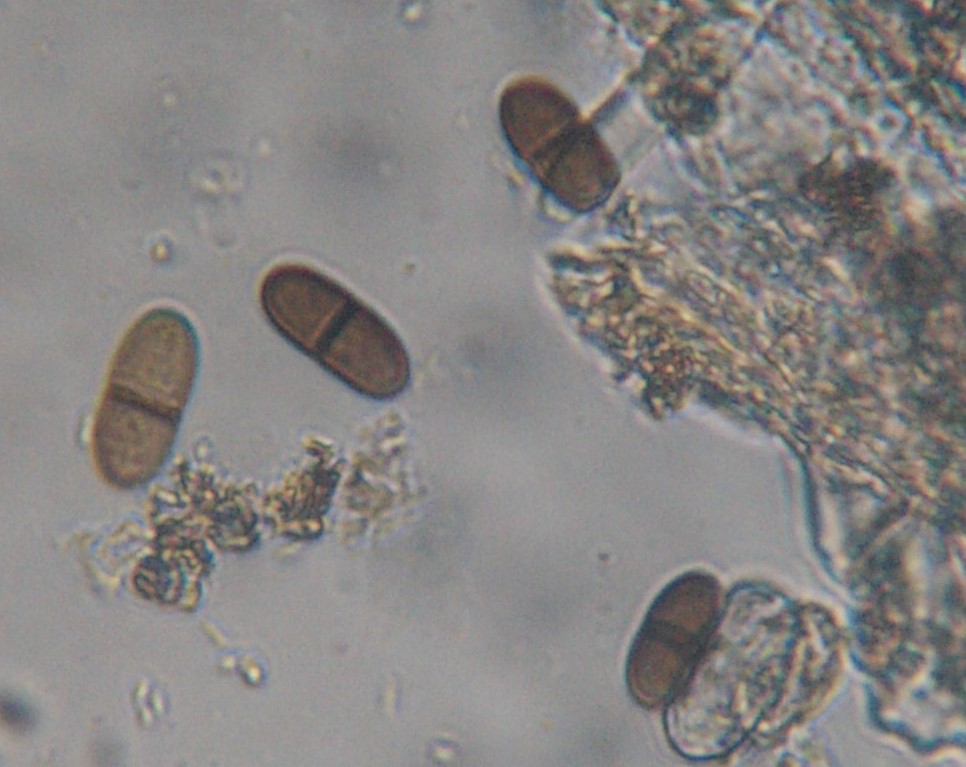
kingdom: Fungi
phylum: Ascomycota
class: Dothideomycetes
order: Botryosphaeriales
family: Botryosphaeriaceae
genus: Diplodia
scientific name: Diplodia rubi
